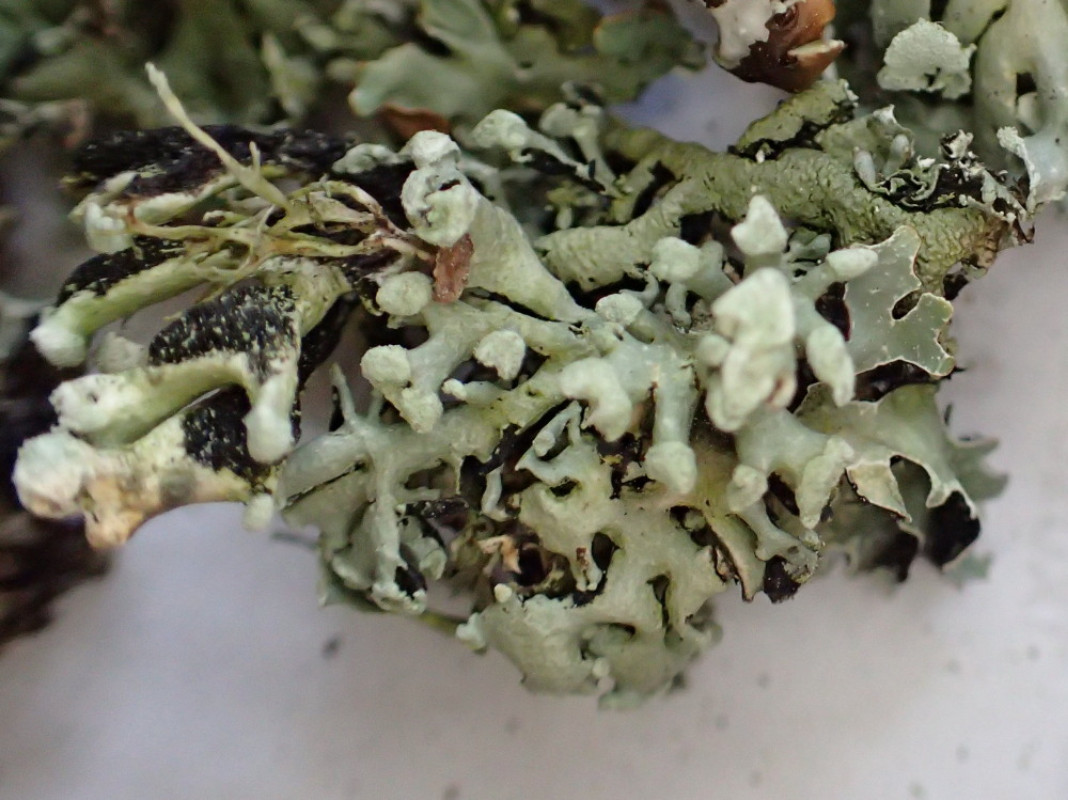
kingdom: Fungi
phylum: Ascomycota
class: Lecanoromycetes
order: Lecanorales
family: Parmeliaceae
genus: Hypogymnia
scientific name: Hypogymnia tubulosa
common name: finger-kvistlav
